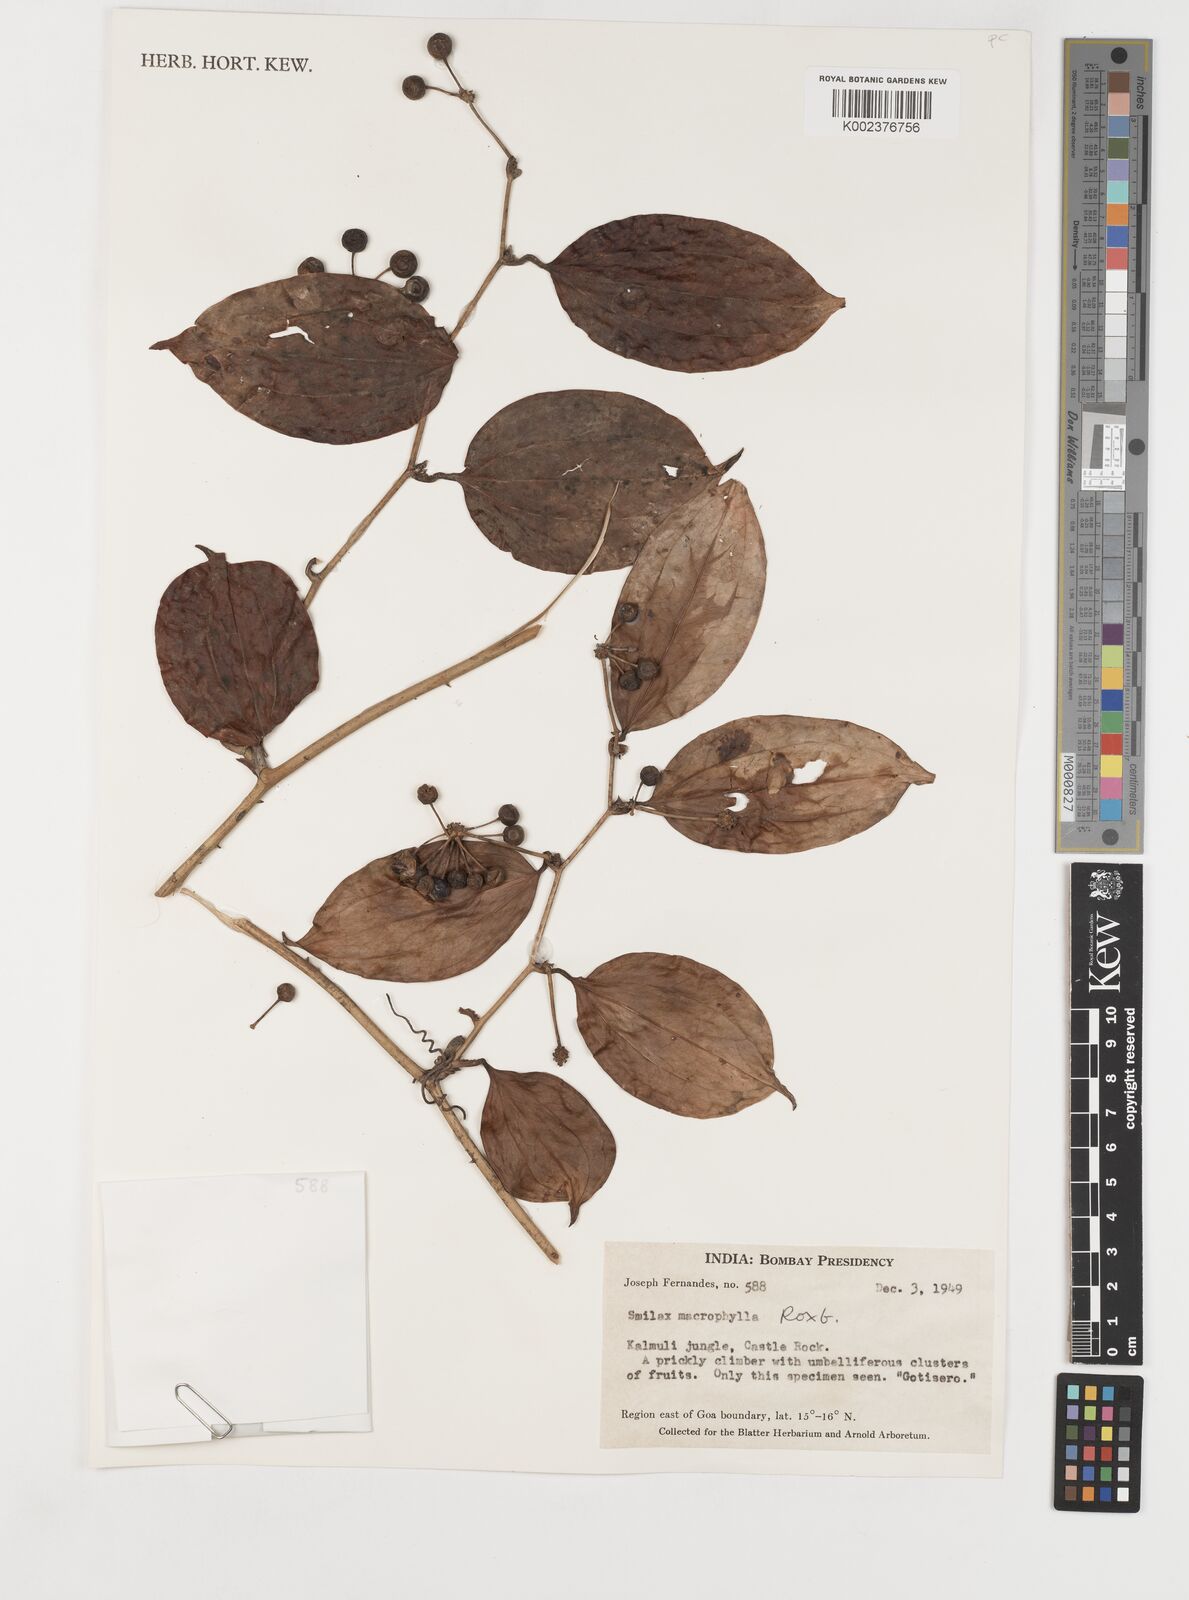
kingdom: Plantae
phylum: Tracheophyta
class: Liliopsida
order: Liliales
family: Smilacaceae
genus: Smilax
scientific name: Smilax ovalifolia
